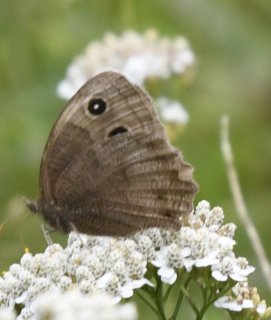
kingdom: Animalia
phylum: Arthropoda
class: Insecta
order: Lepidoptera
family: Nymphalidae
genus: Cercyonis
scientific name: Cercyonis pegala
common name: Common Wood-Nymph
